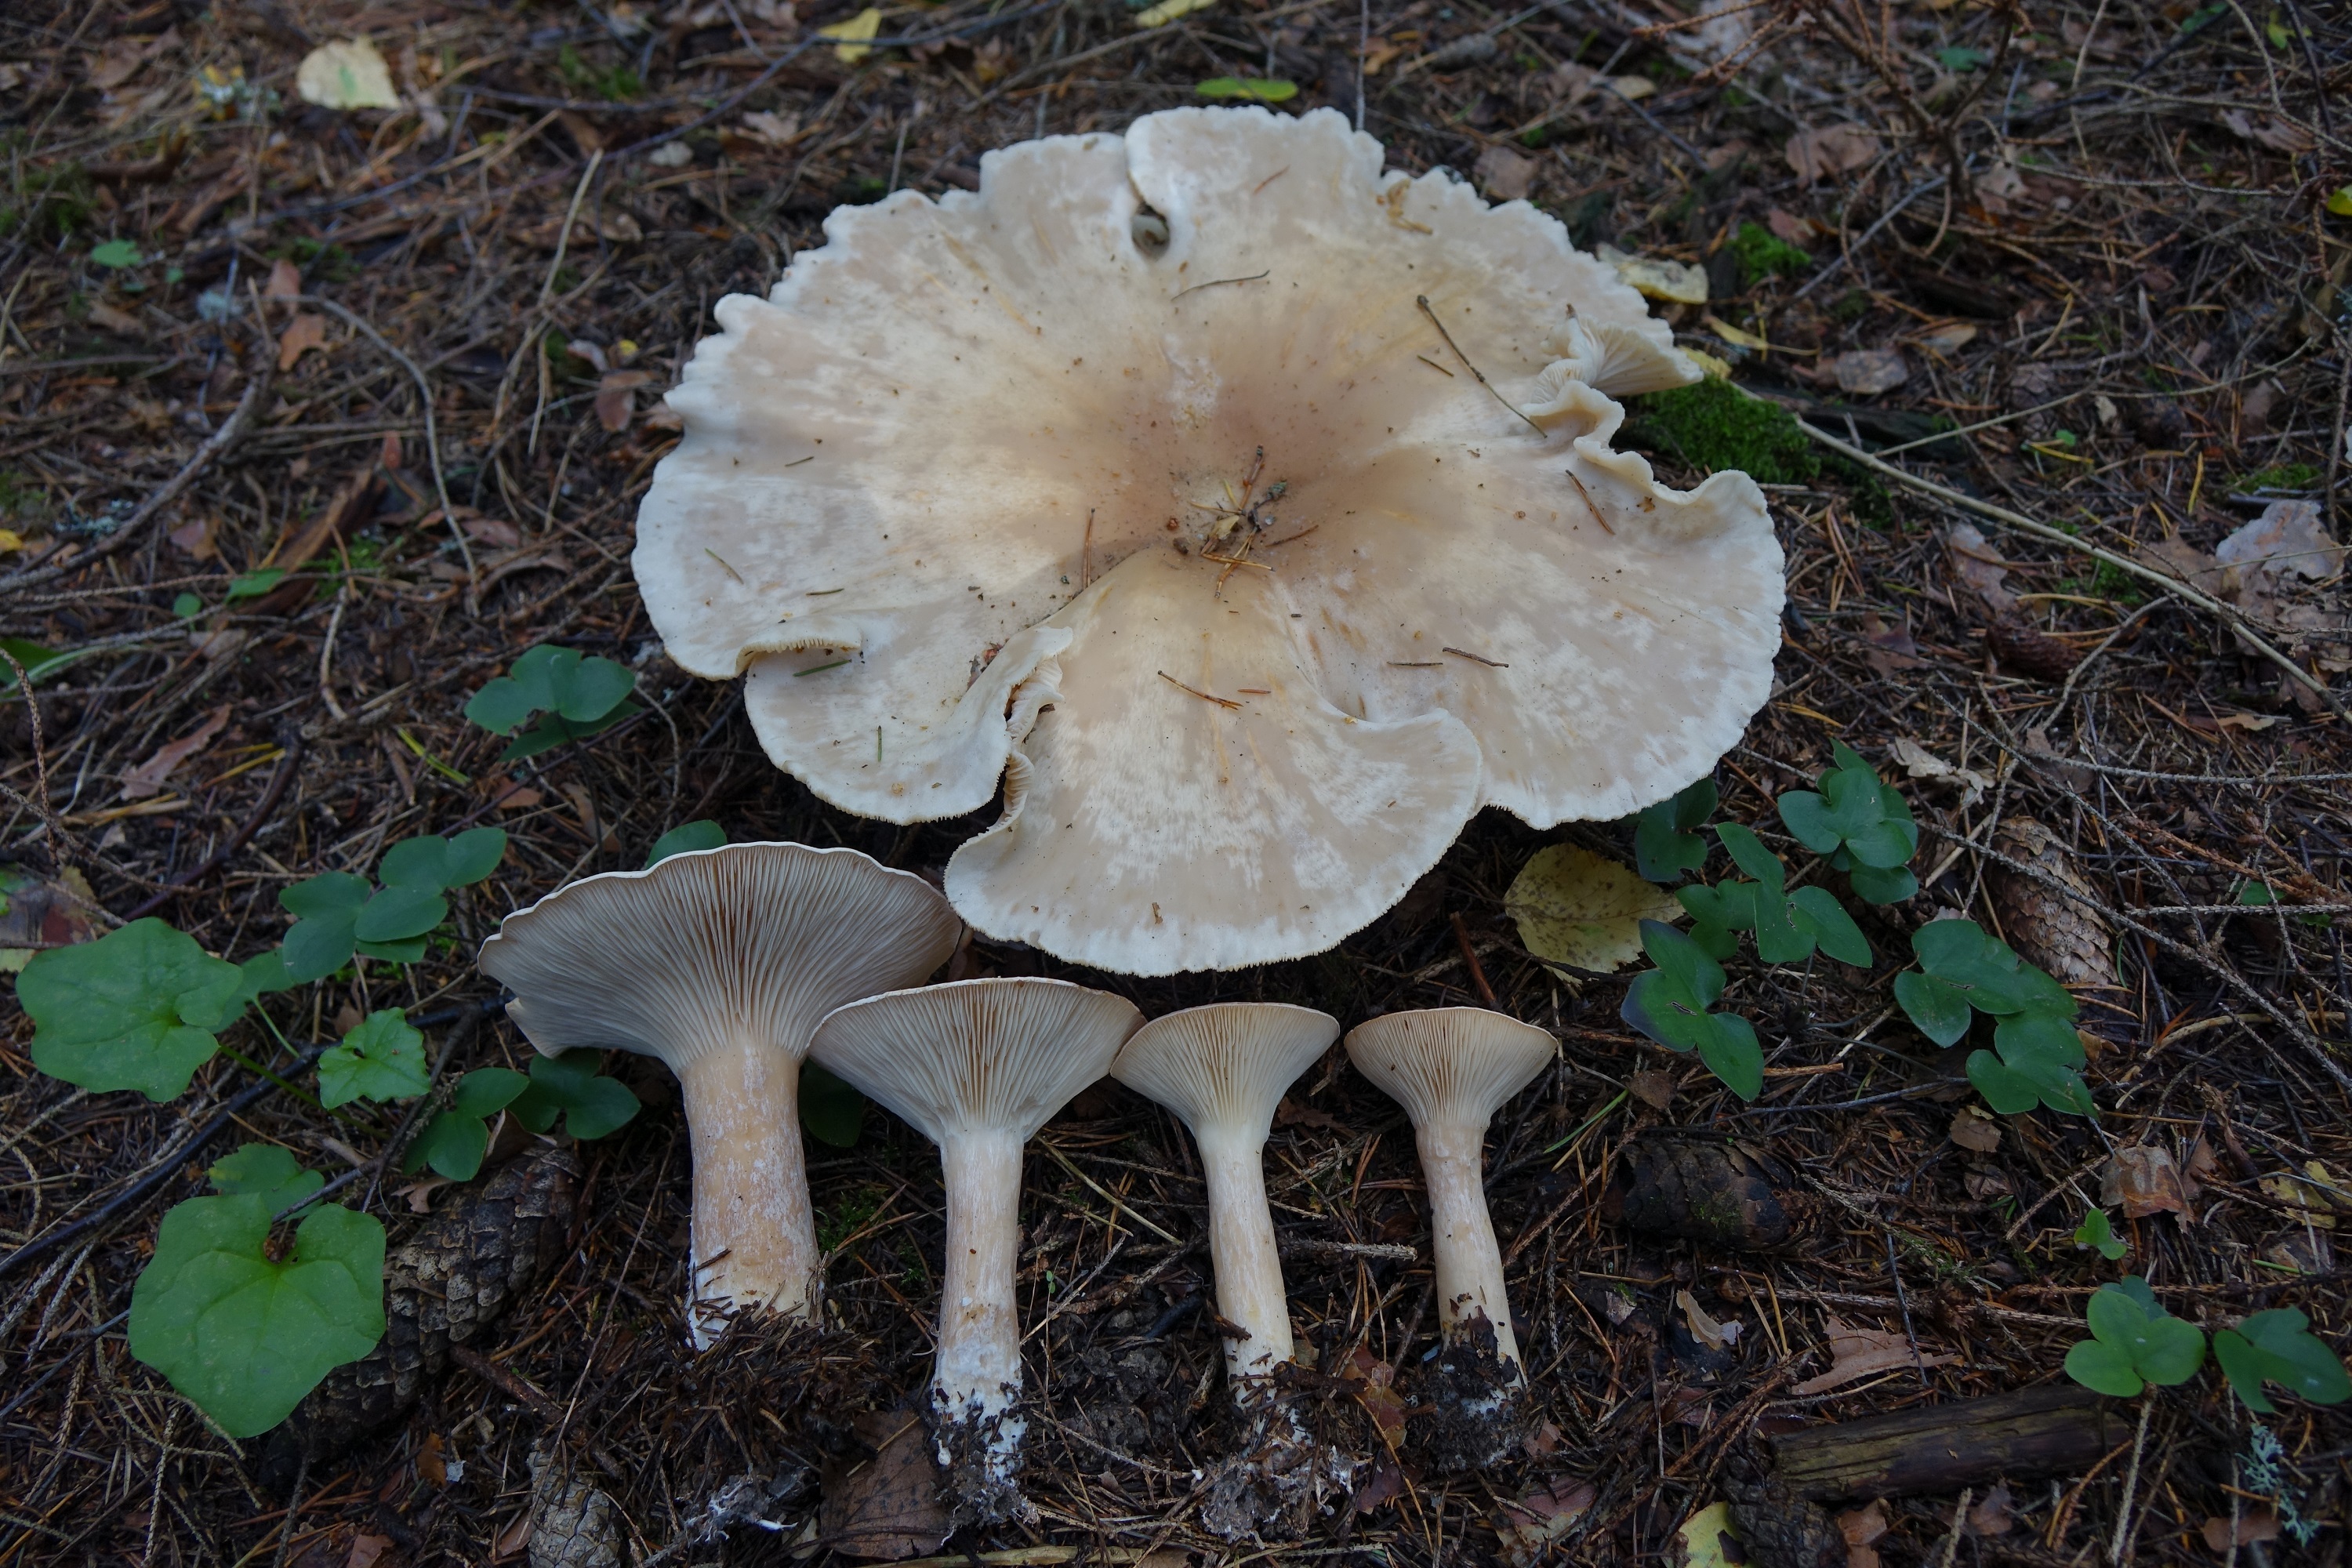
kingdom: Fungi
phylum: Basidiomycota
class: Agaricomycetes
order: Agaricales
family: Tricholomataceae
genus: Infundibulicybe
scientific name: Infundibulicybe gigas
